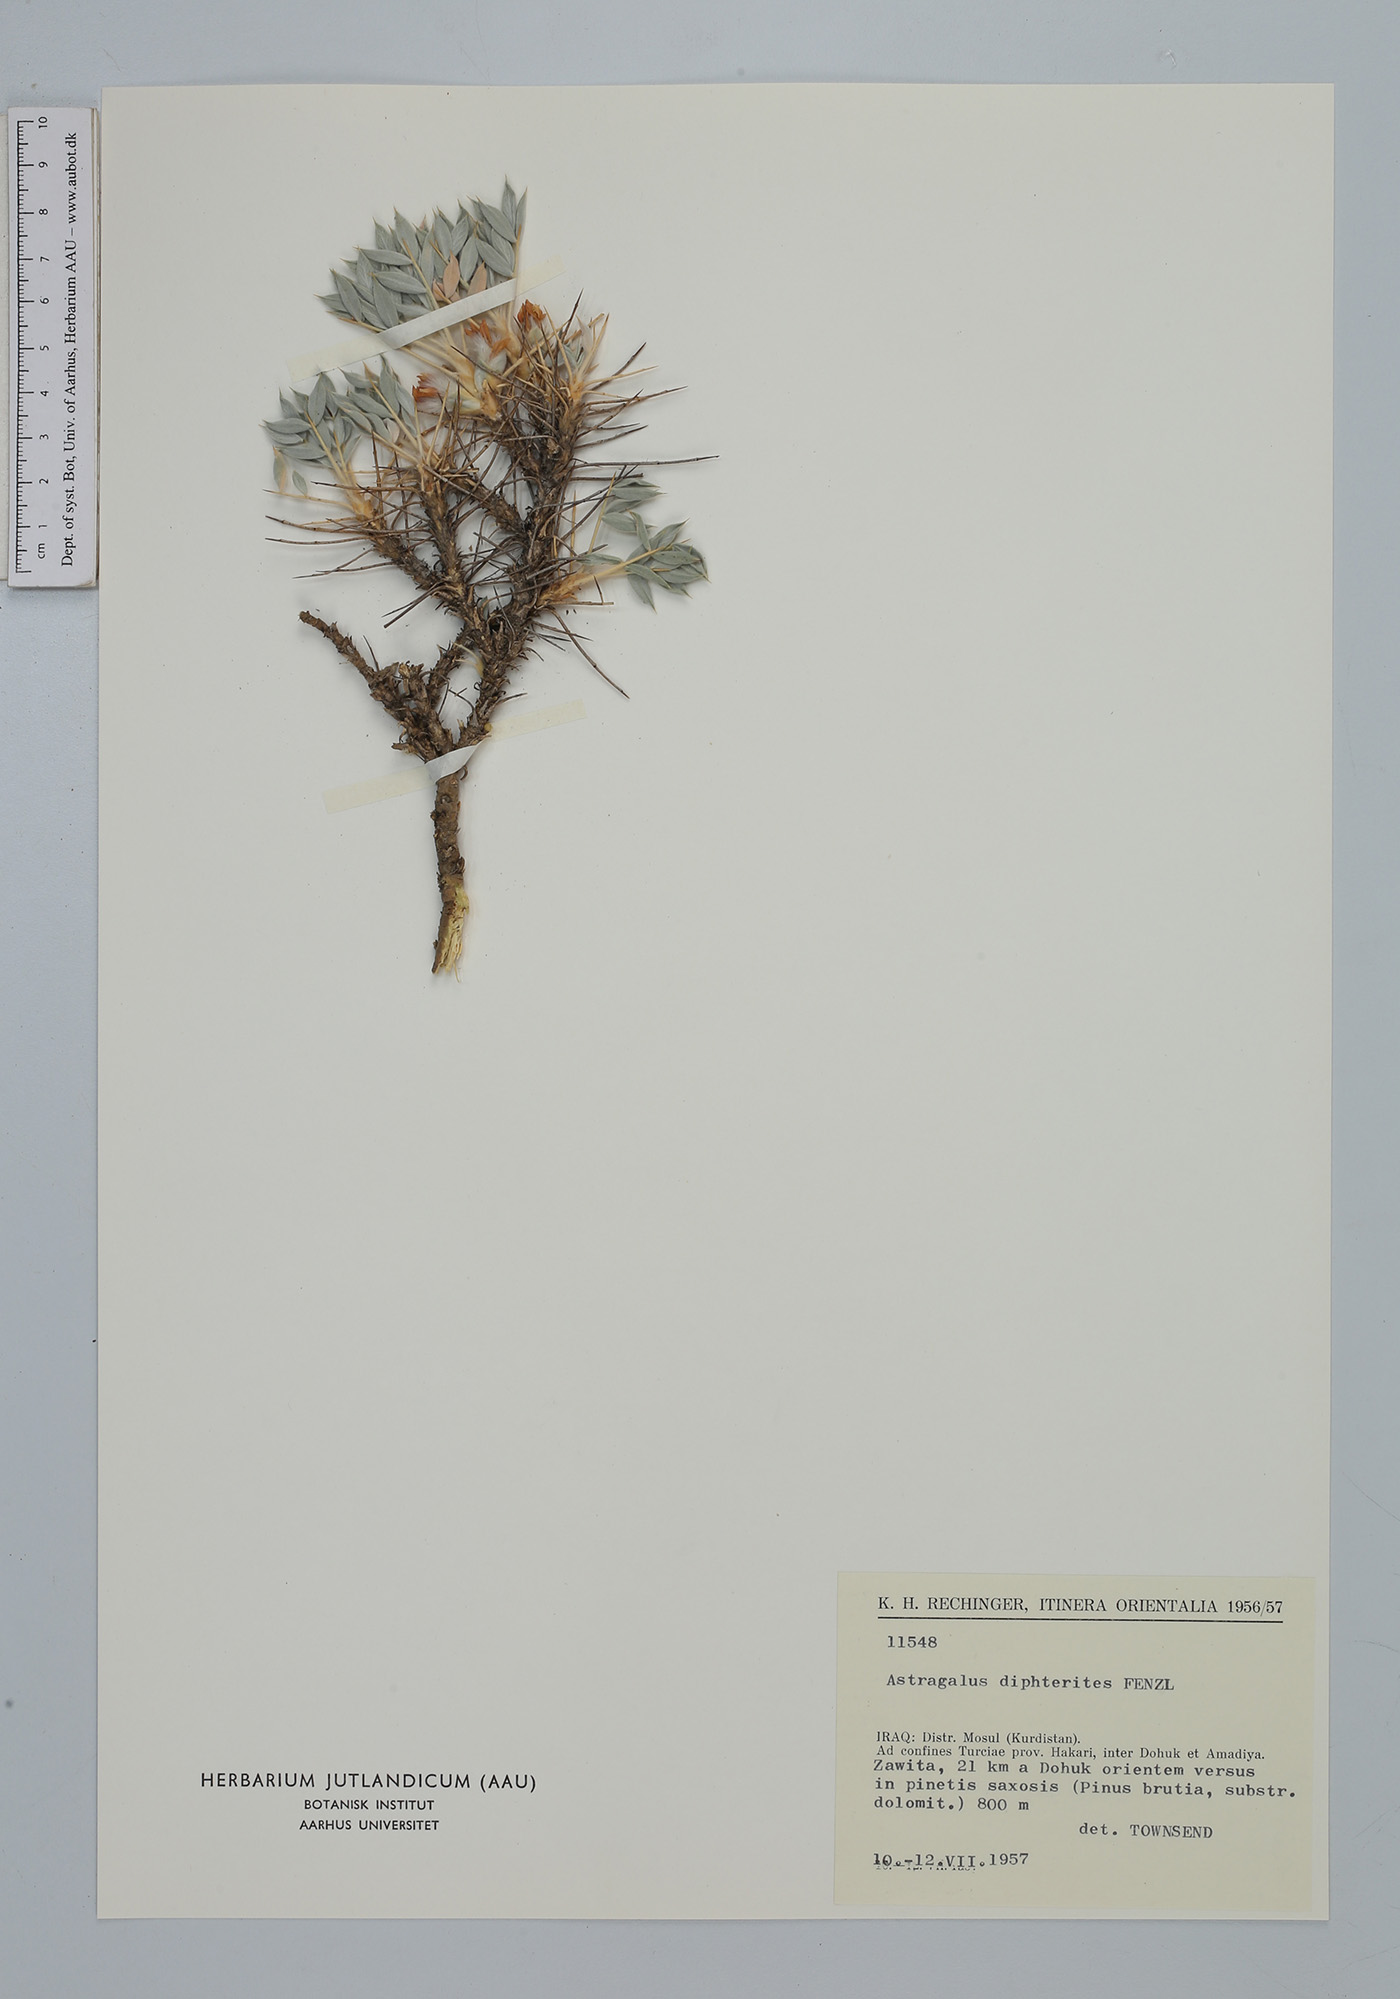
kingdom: Plantae
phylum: Tracheophyta
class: Magnoliopsida
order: Fabales
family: Fabaceae
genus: Astragalus
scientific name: Astragalus diphtherites
